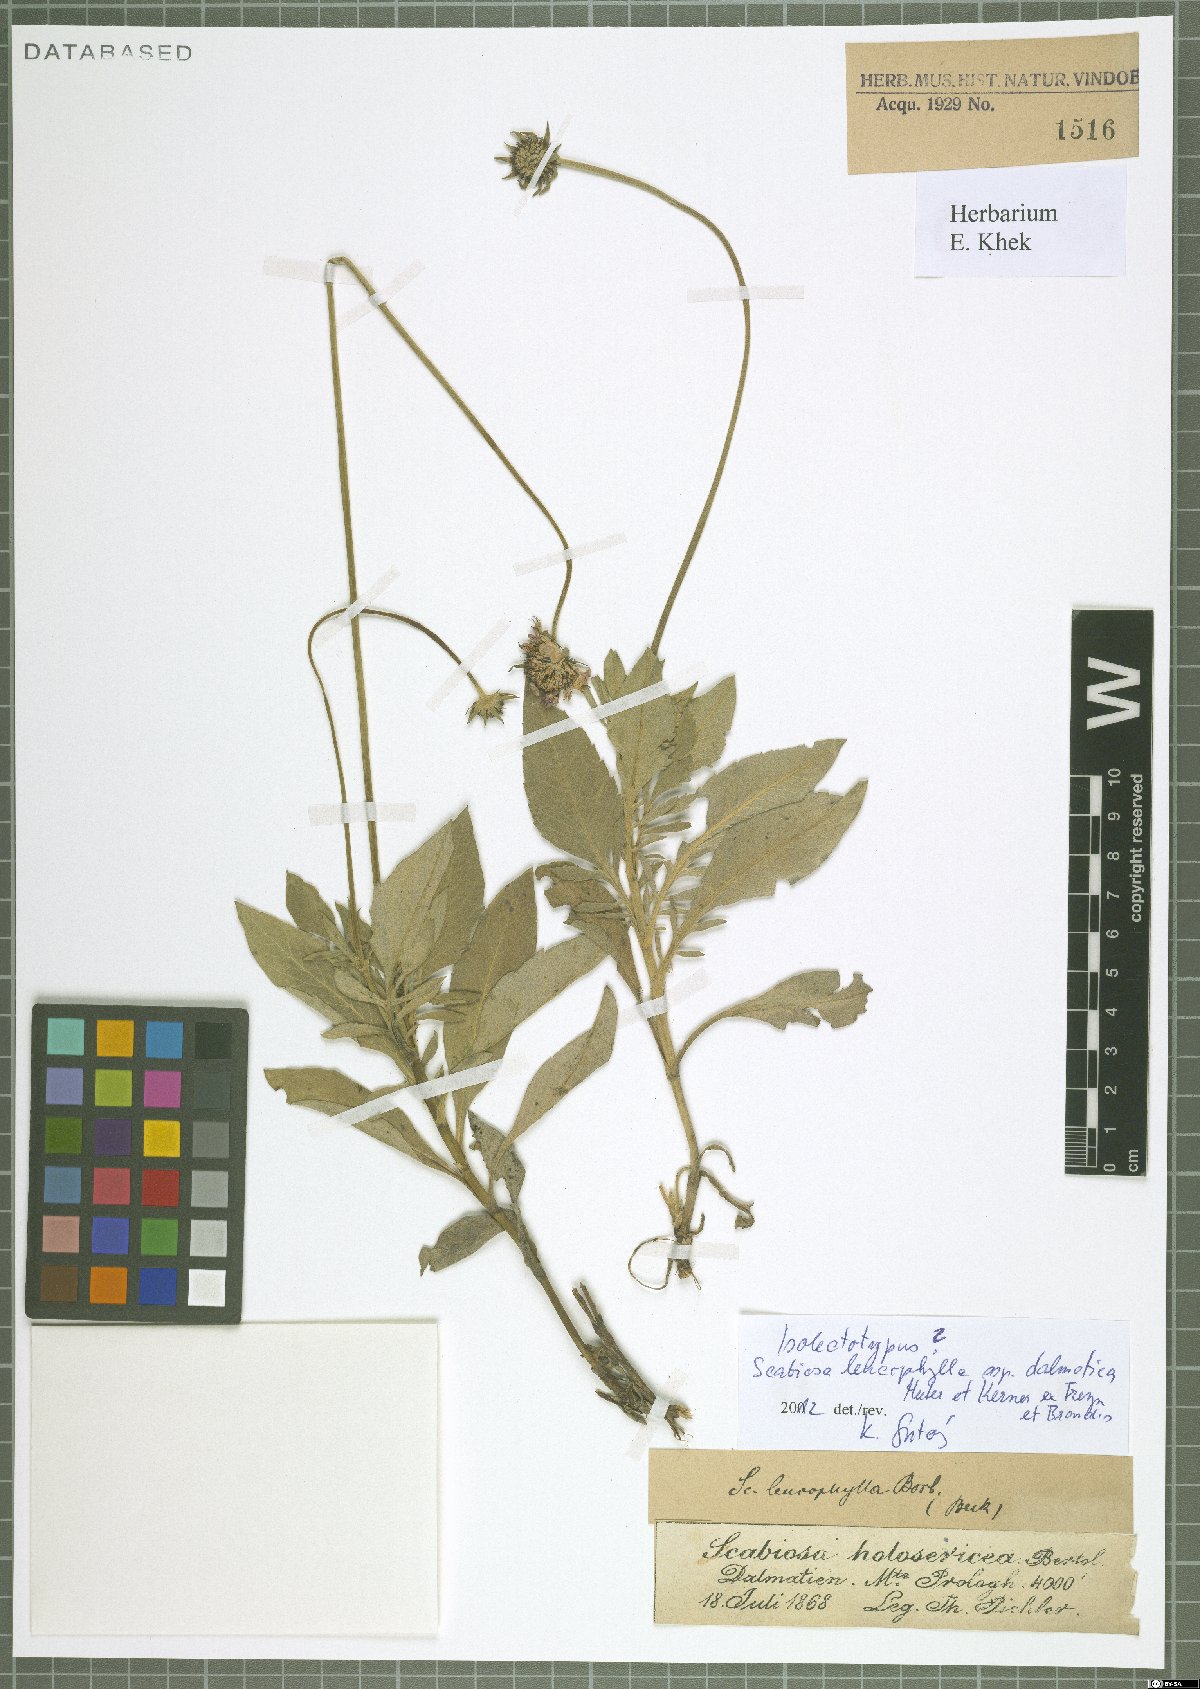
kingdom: Plantae
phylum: Tracheophyta
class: Magnoliopsida
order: Dipsacales
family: Caprifoliaceae
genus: Scabiosa
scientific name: Scabiosa cinerea
